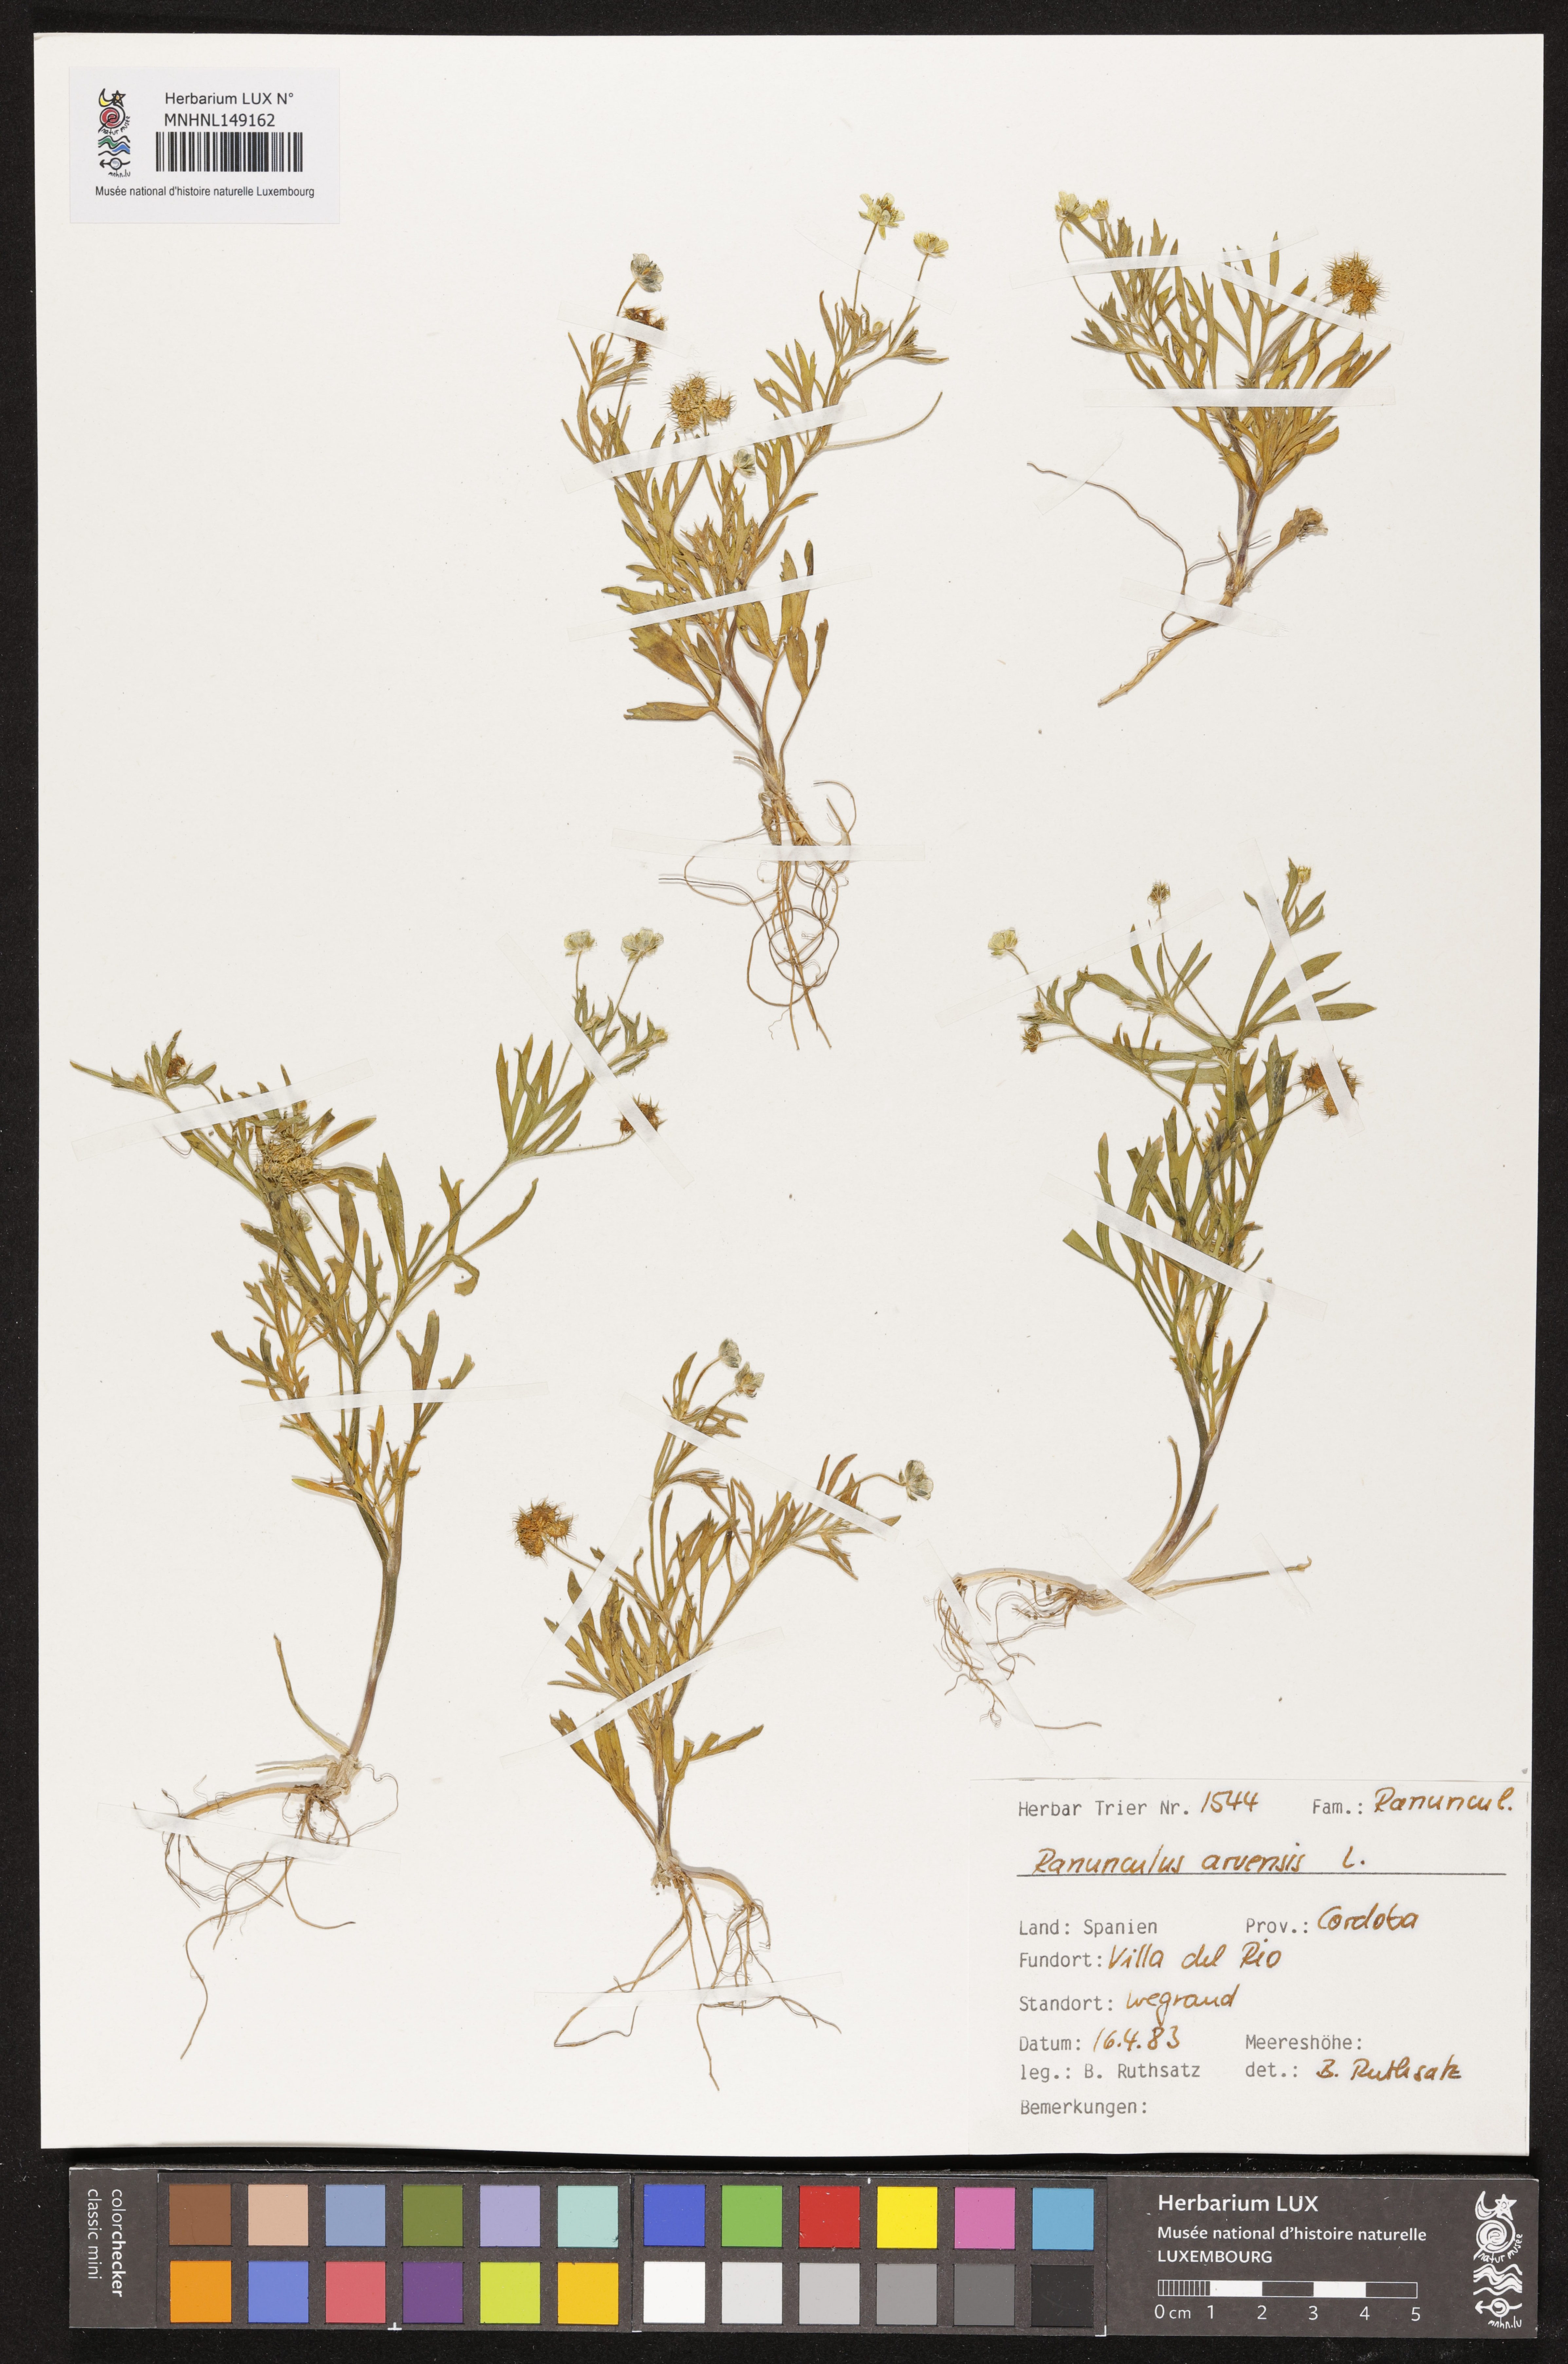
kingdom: Plantae
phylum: Tracheophyta
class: Magnoliopsida
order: Ranunculales
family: Ranunculaceae
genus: Ranunculus
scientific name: Ranunculus arvensis
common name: Corn buttercup
